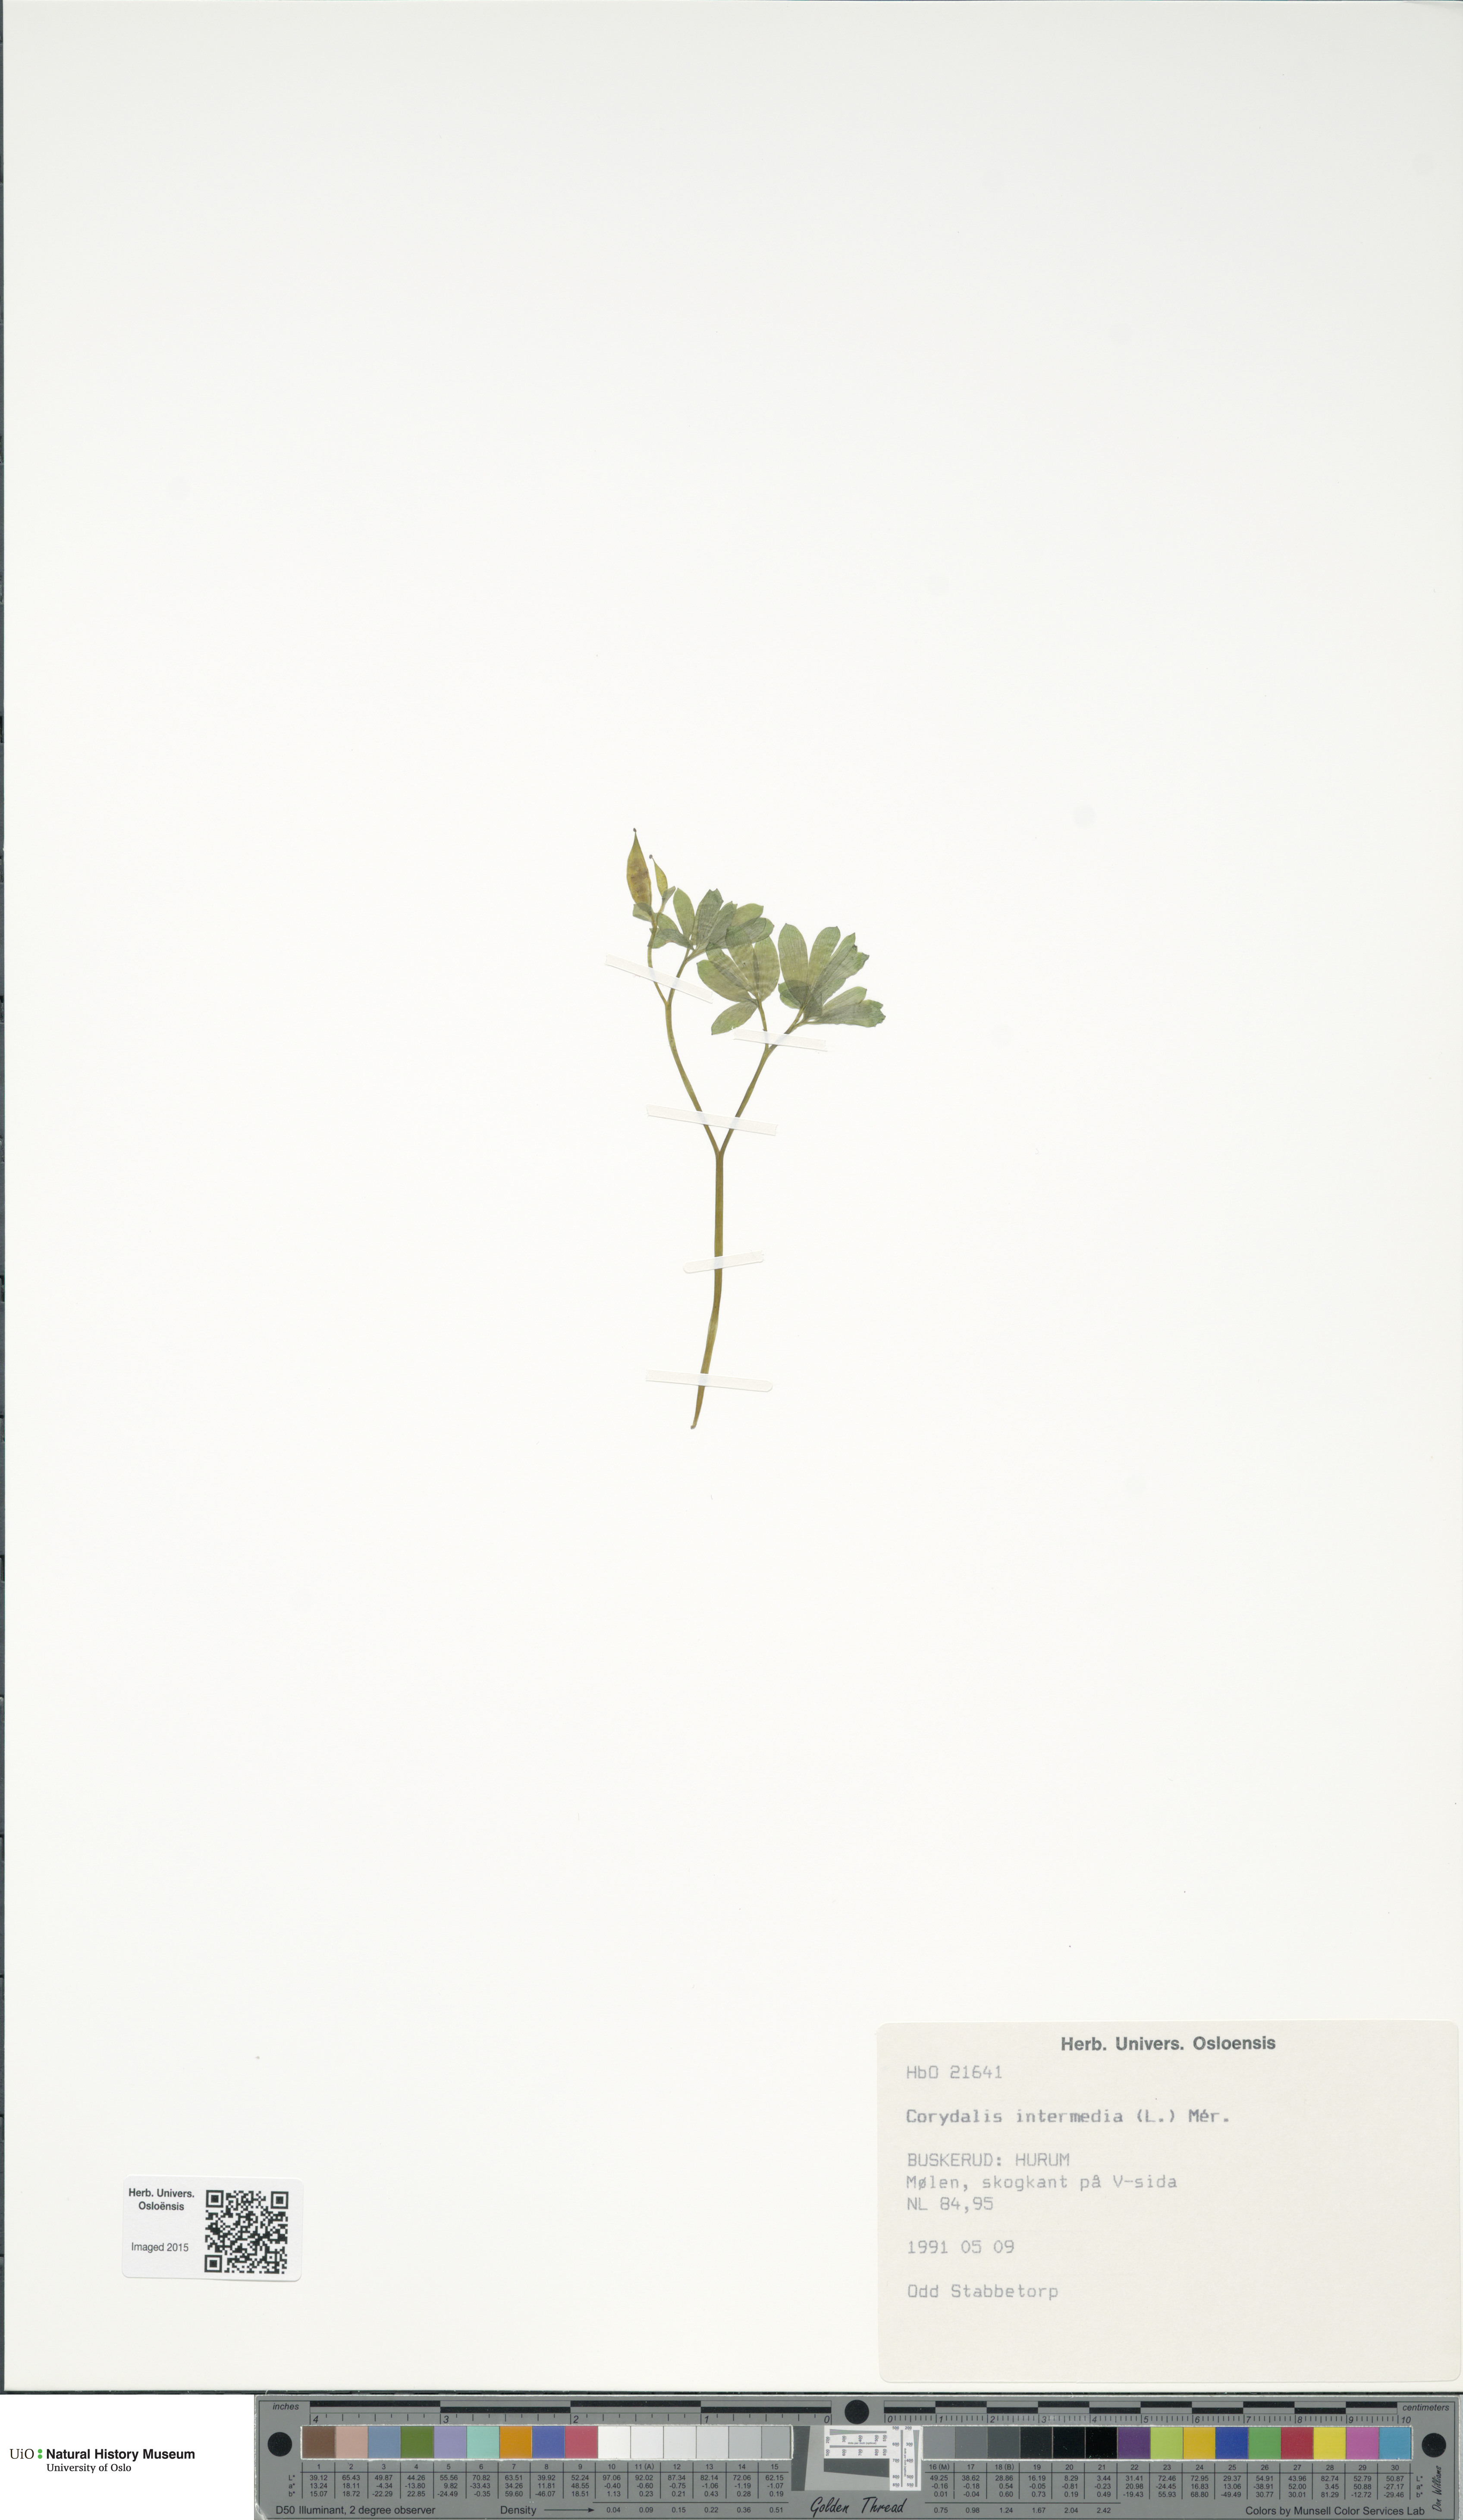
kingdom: Plantae
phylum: Tracheophyta
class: Magnoliopsida
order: Ranunculales
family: Papaveraceae
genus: Corydalis
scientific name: Corydalis intermedia
